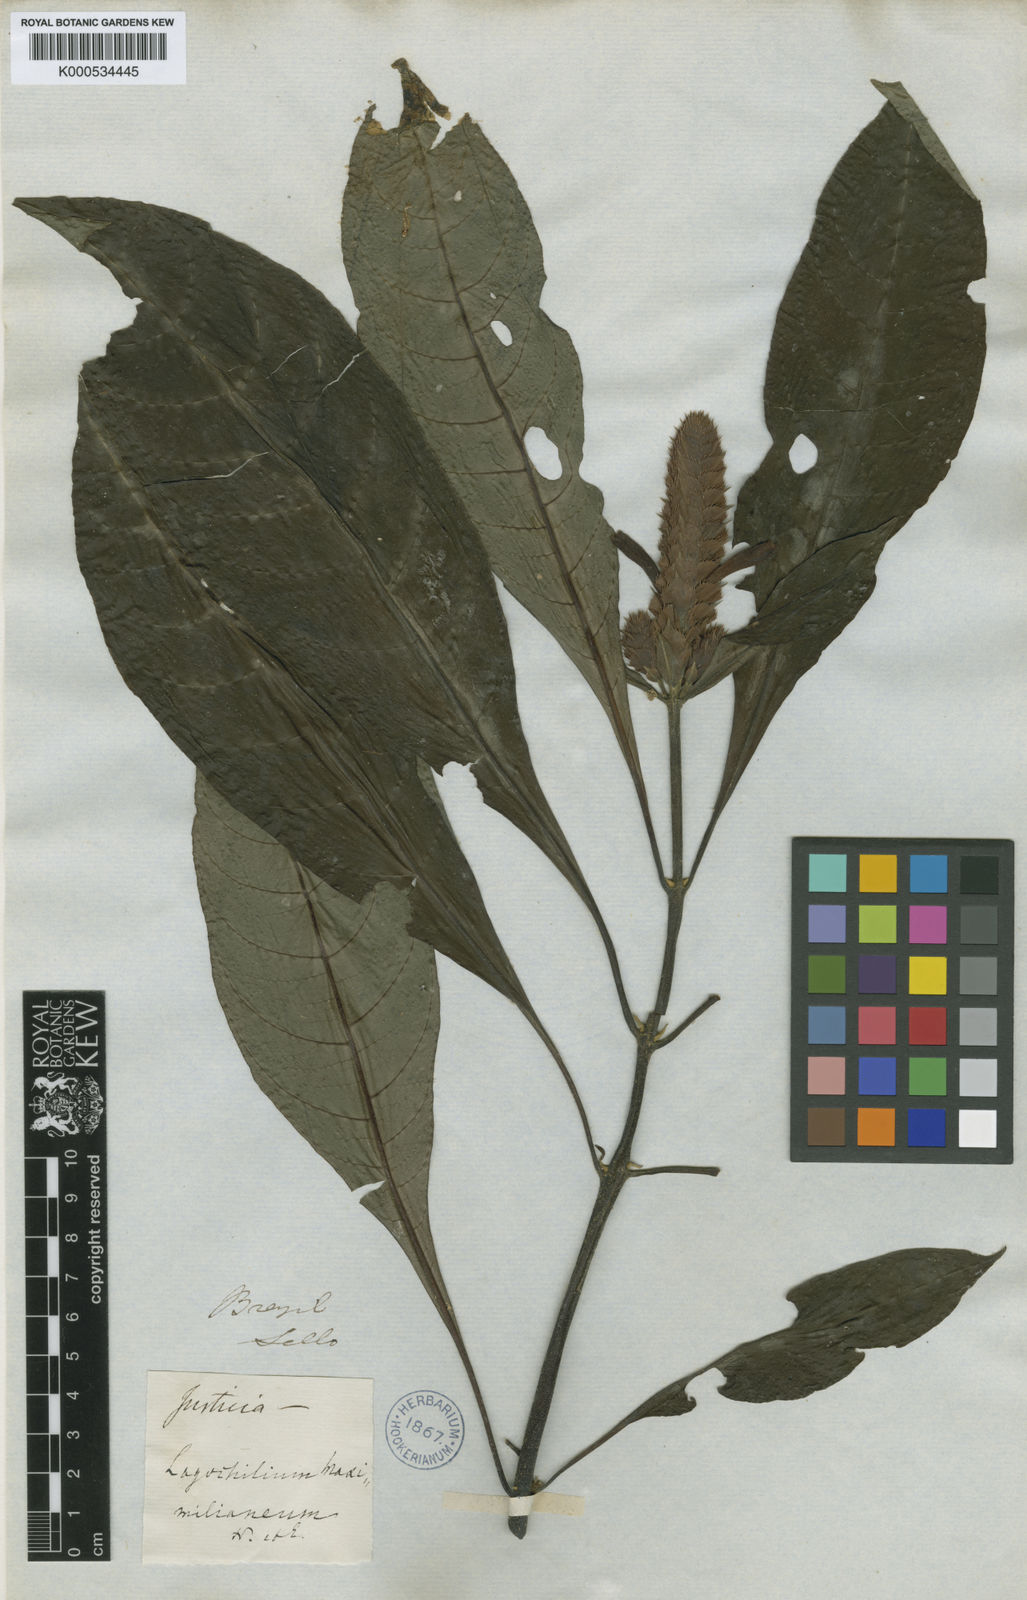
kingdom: Plantae
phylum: Tracheophyta
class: Magnoliopsida
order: Lamiales
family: Acanthaceae
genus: Aphelandra
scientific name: Aphelandra
